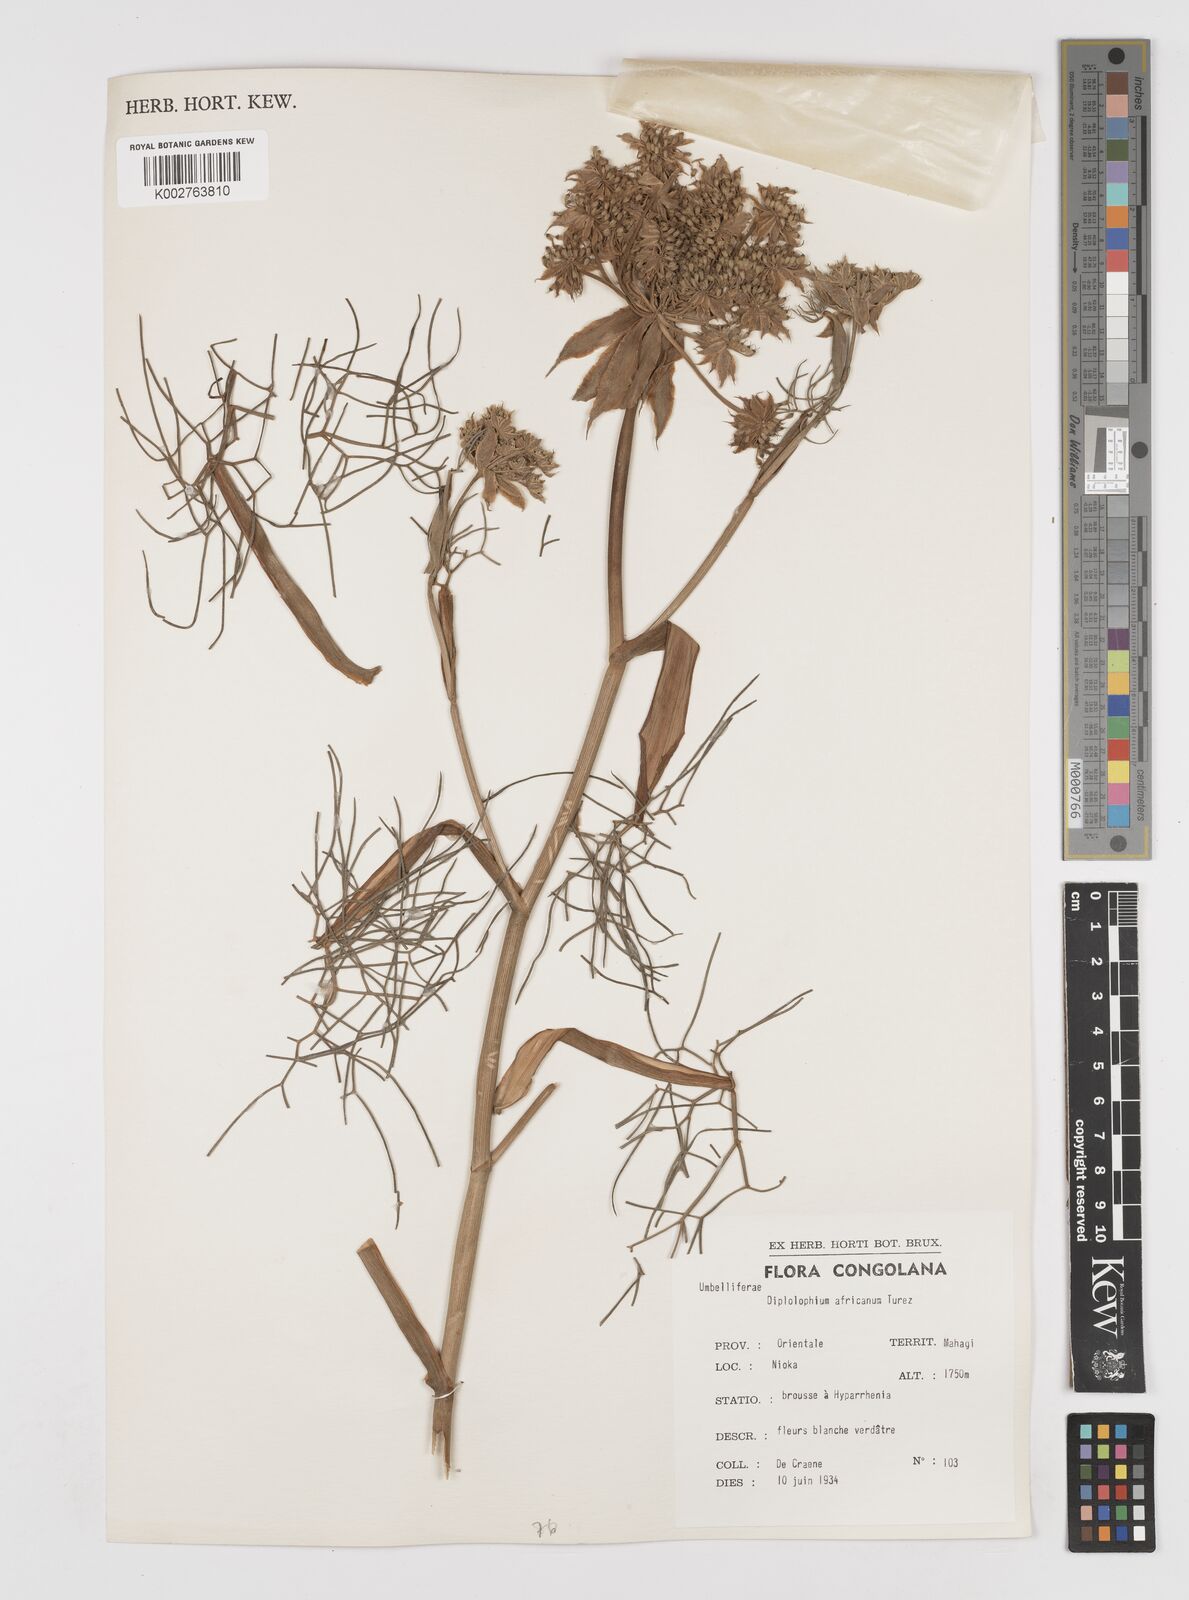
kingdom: Plantae
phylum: Tracheophyta
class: Magnoliopsida
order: Apiales
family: Apiaceae
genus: Diplolophium
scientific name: Diplolophium africanum
